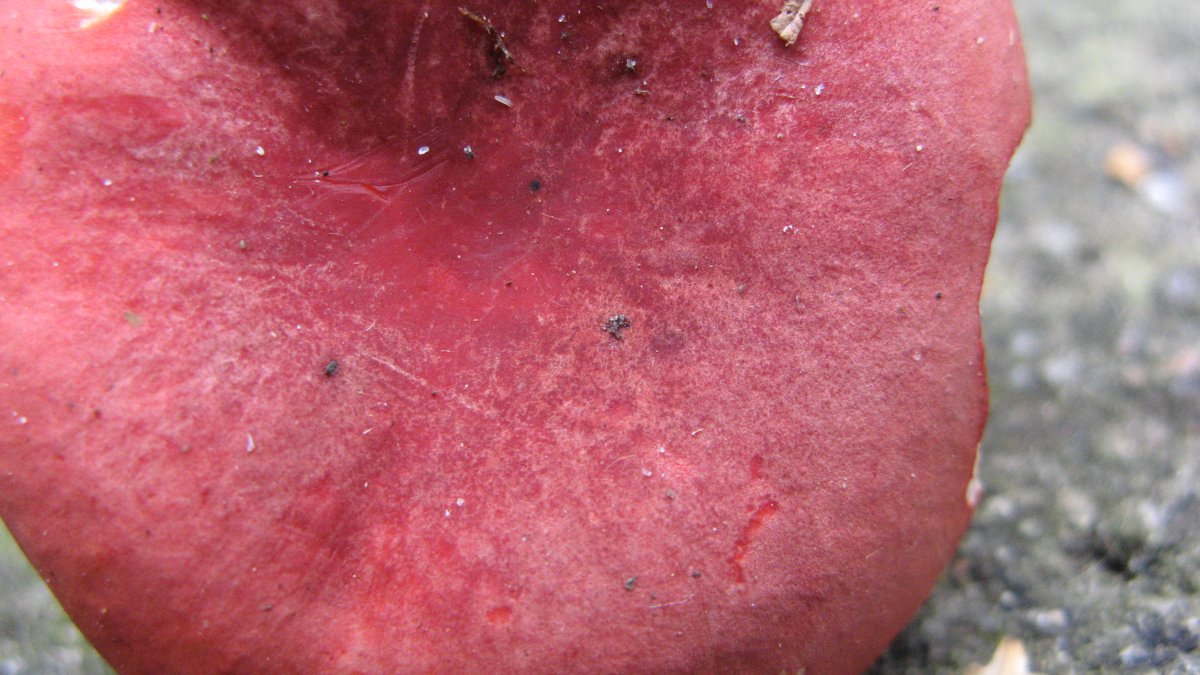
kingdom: Fungi
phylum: Basidiomycota
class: Agaricomycetes
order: Russulales
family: Russulaceae
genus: Russula
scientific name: Russula rosea
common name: fastkødet skørhat
